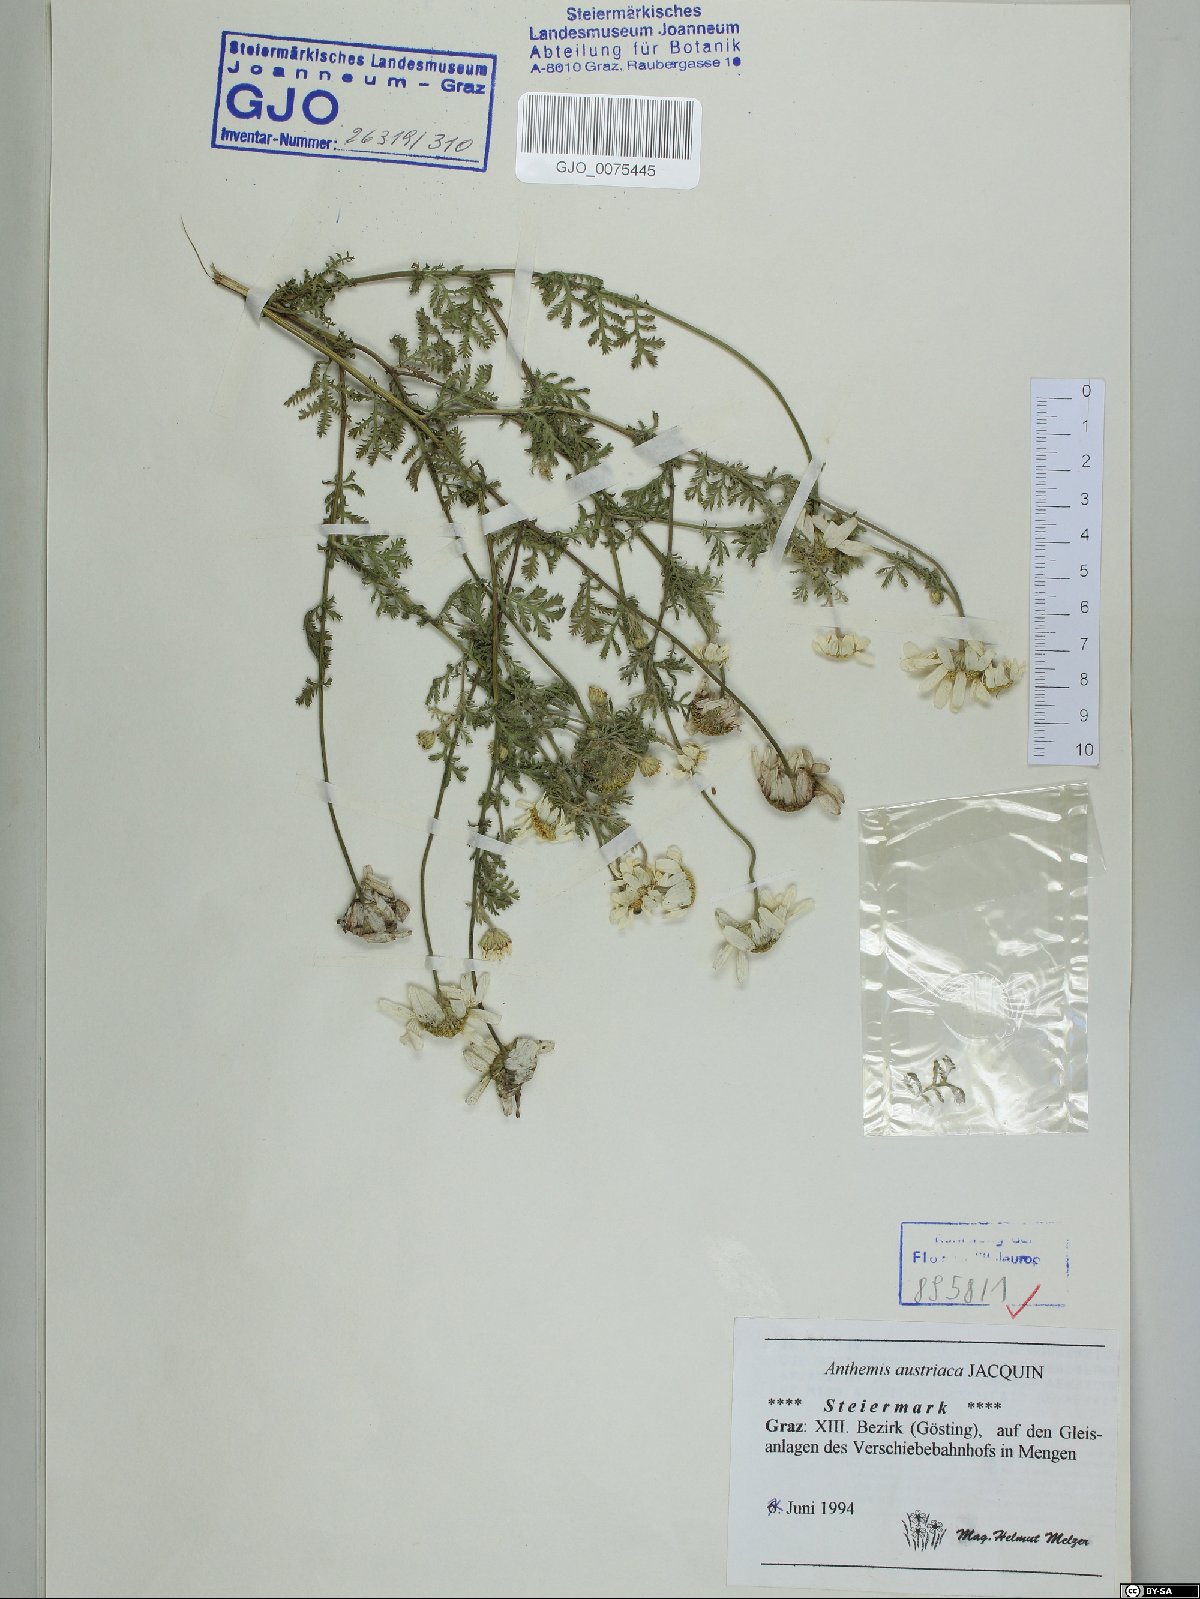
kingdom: Plantae
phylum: Tracheophyta
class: Magnoliopsida
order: Asterales
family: Asteraceae
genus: Cota
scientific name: Cota austriaca
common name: Austrian chamomile
